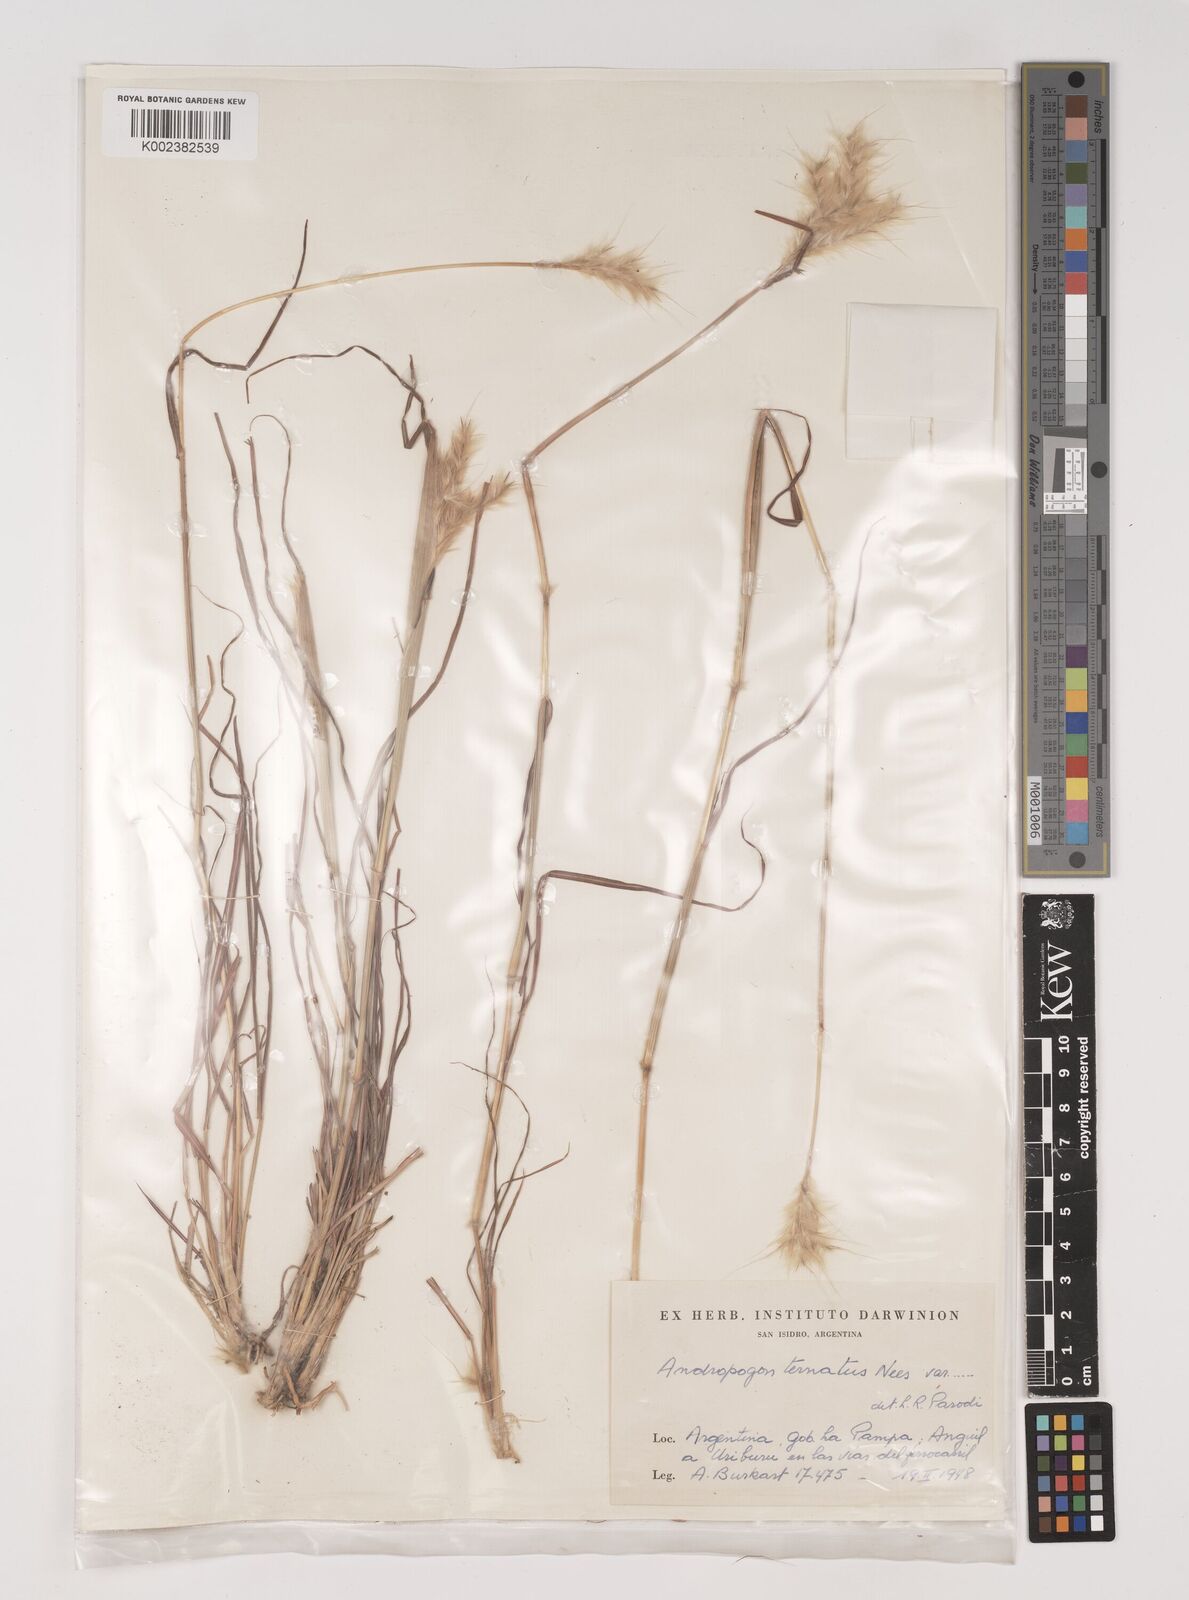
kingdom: Plantae
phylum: Tracheophyta
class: Liliopsida
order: Poales
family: Poaceae
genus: Bothriochloa
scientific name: Bothriochloa springfieldii
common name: Springfield bluestem
